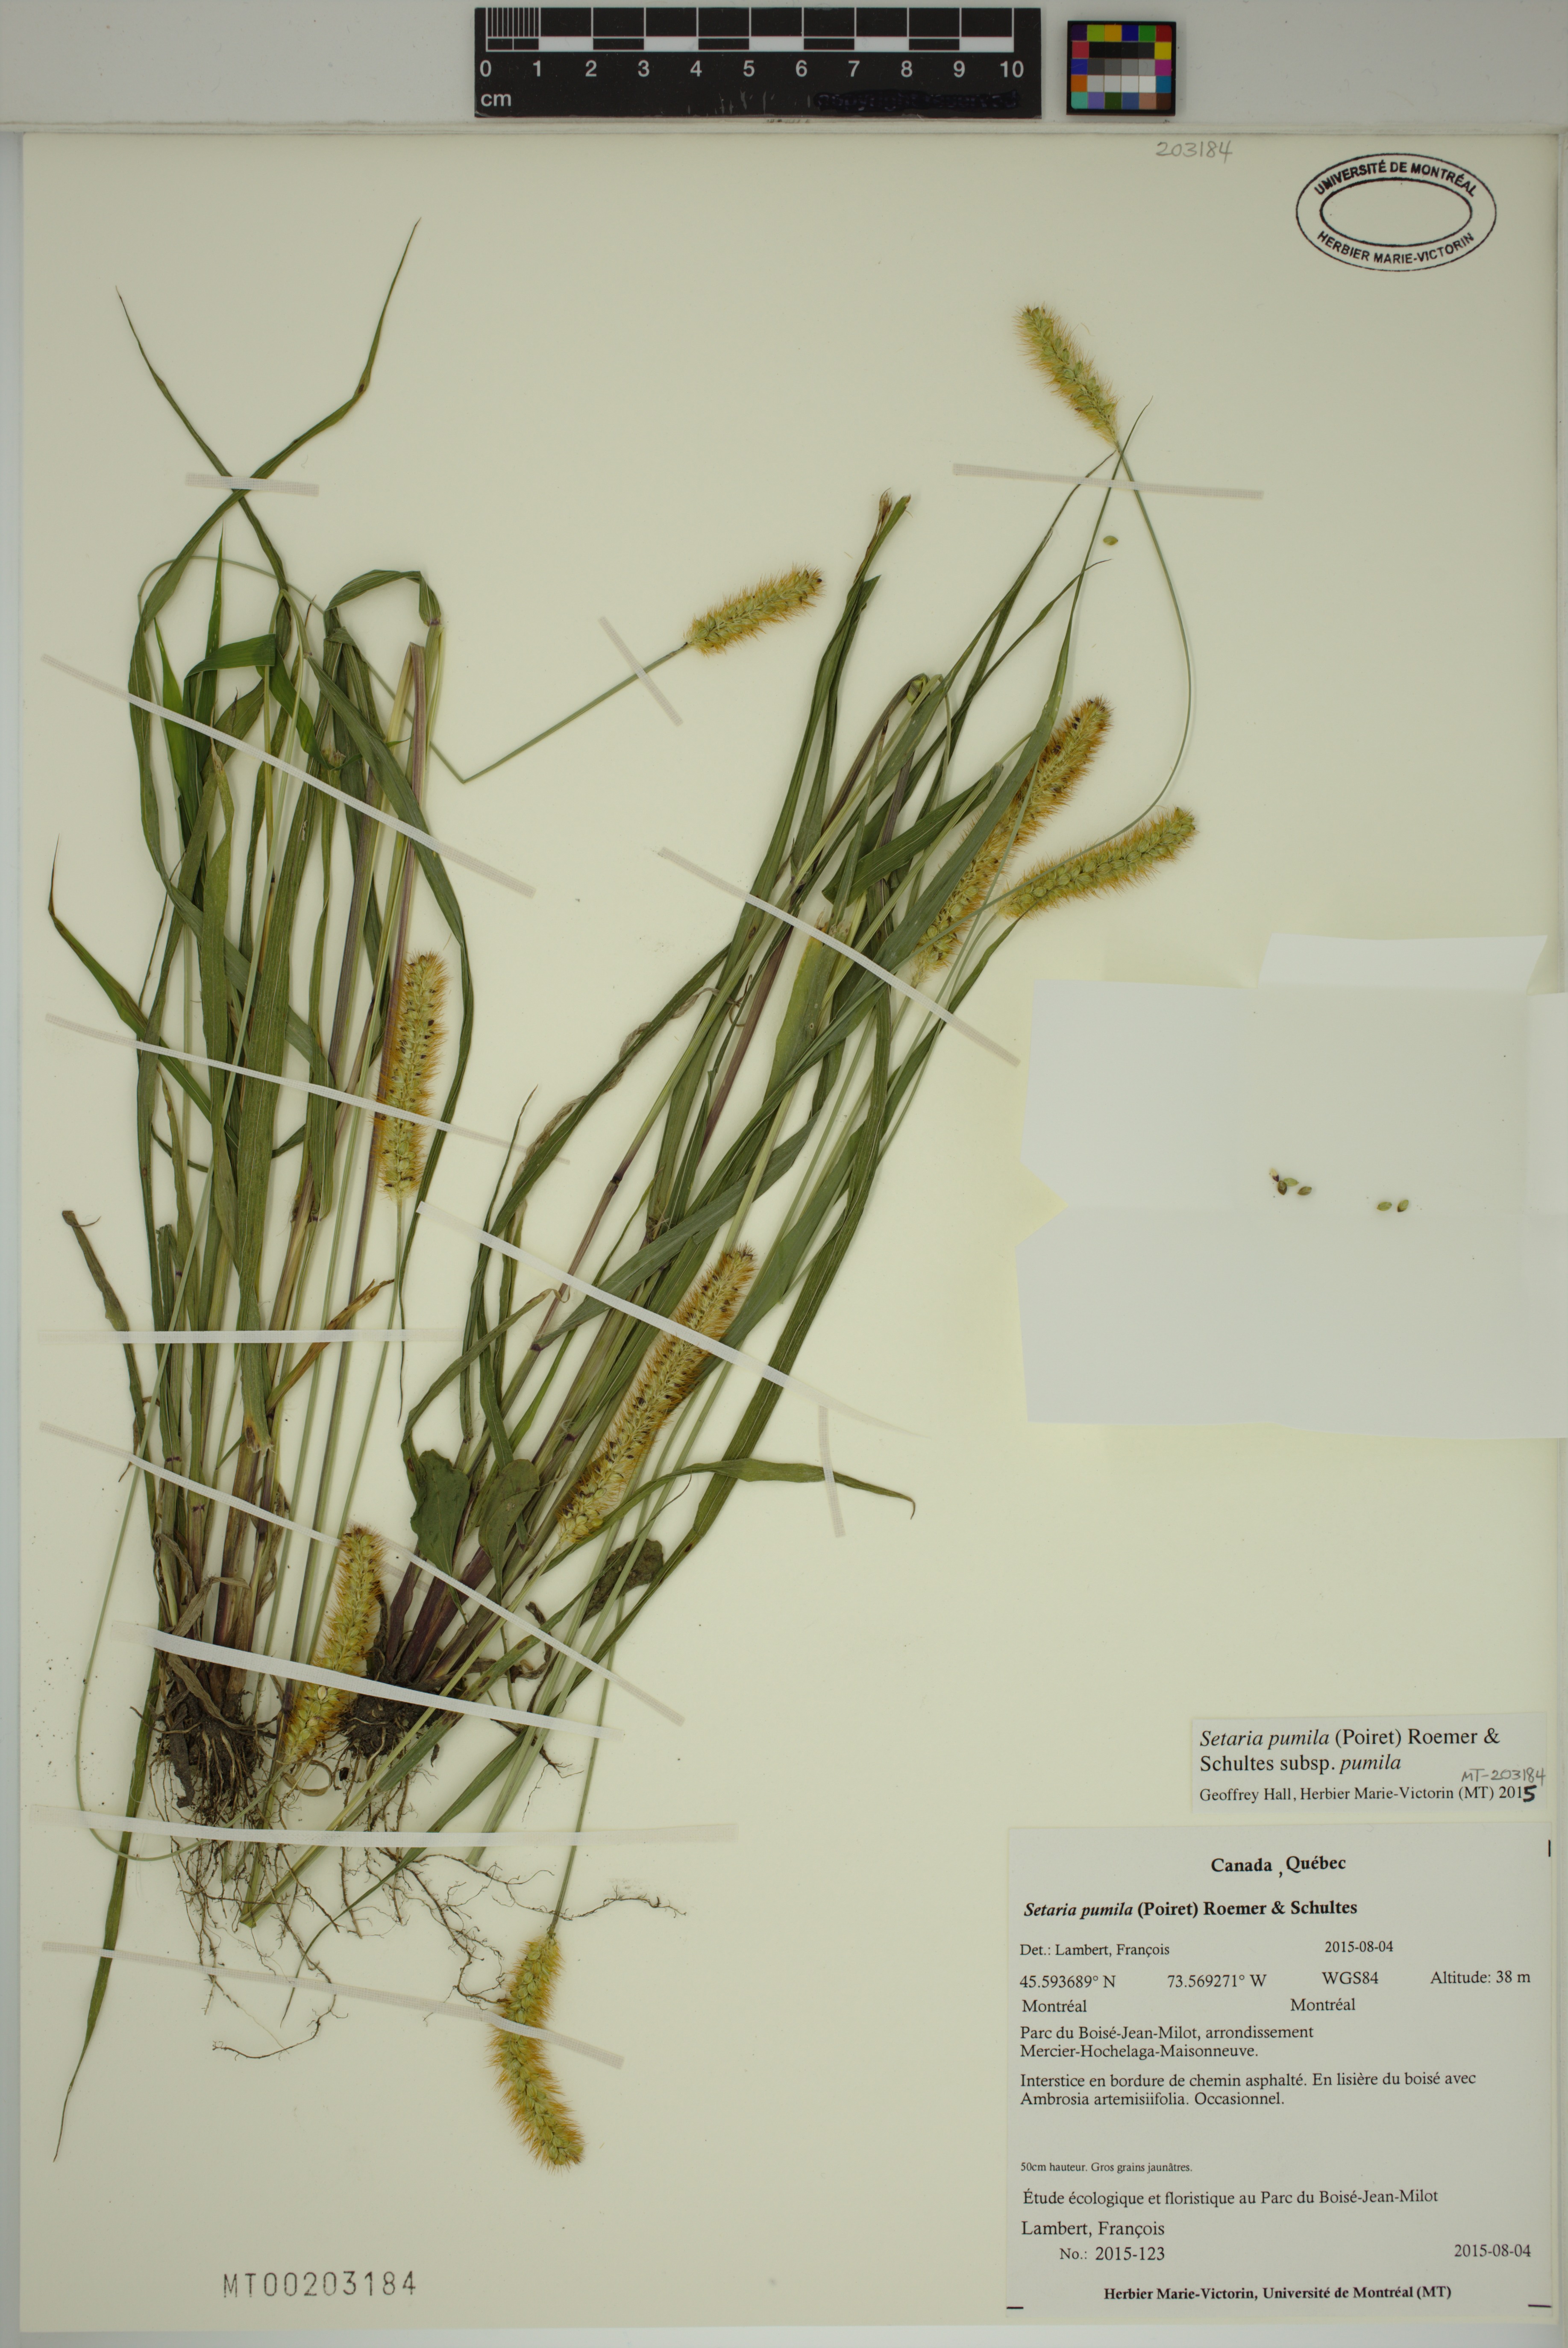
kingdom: Plantae
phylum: Tracheophyta
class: Liliopsida
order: Poales
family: Poaceae
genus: Setaria
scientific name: Setaria pumila
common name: Yellow bristle-grass
